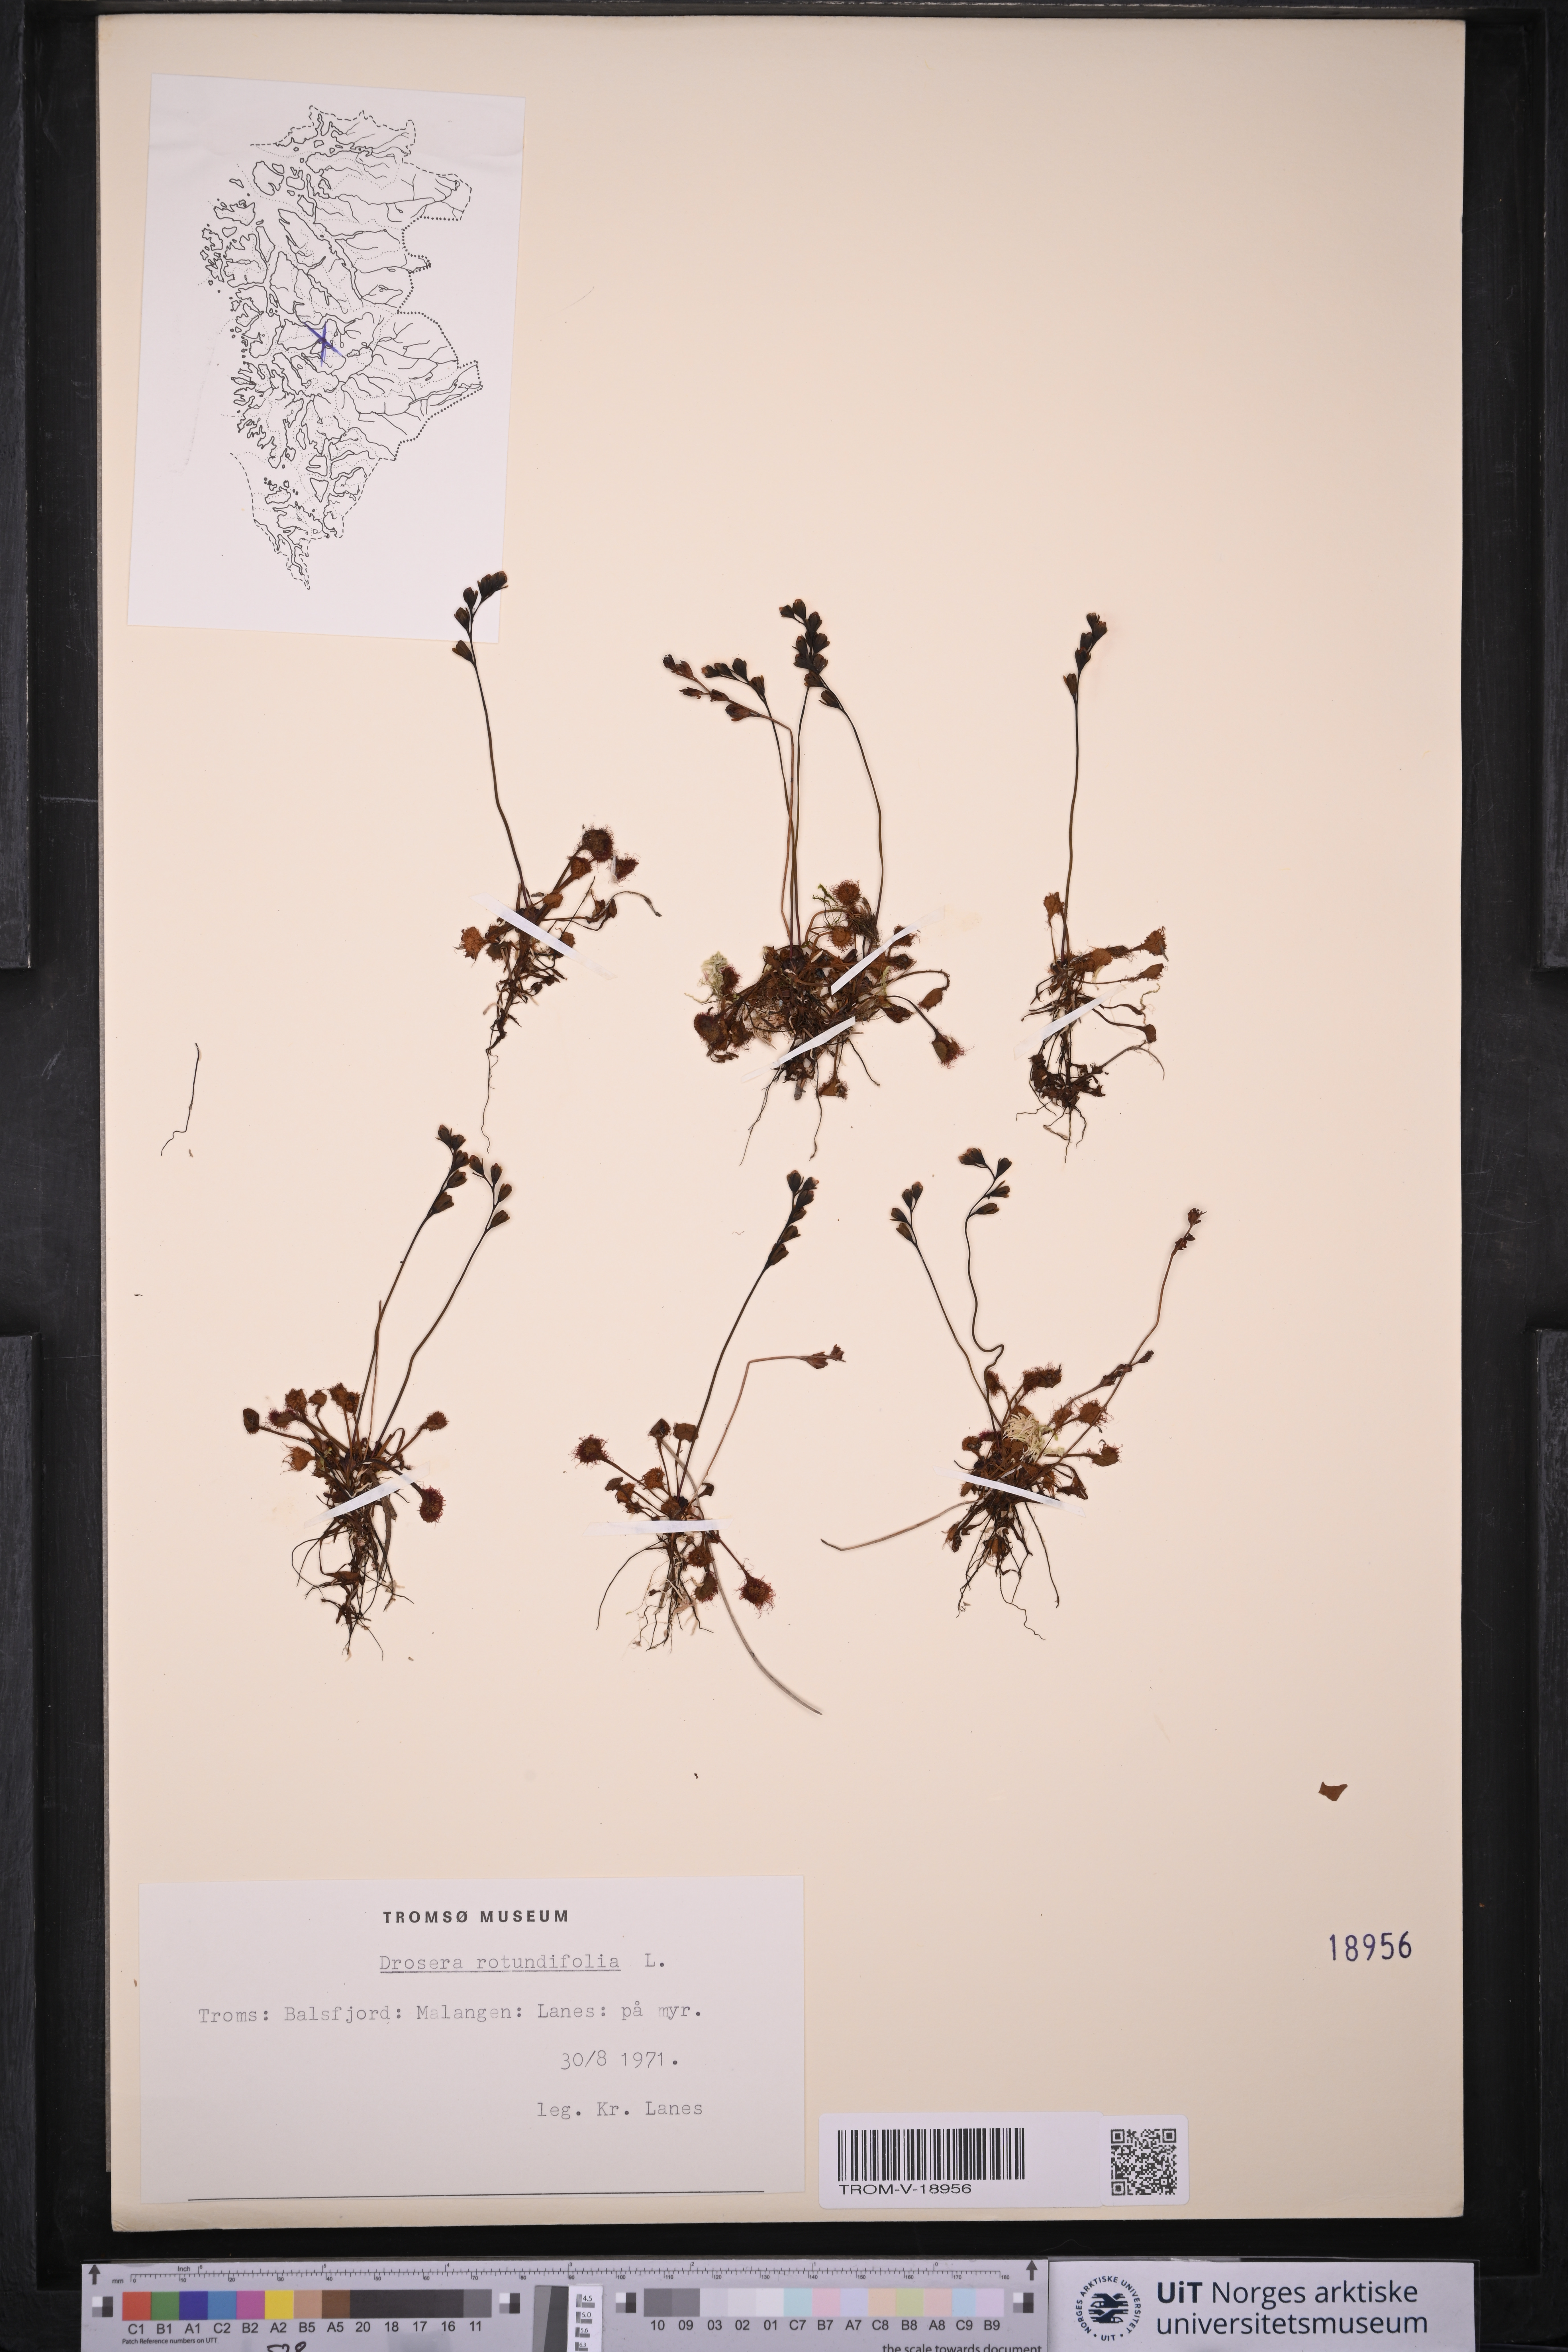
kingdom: Plantae
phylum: Tracheophyta
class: Magnoliopsida
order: Caryophyllales
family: Droseraceae
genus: Drosera
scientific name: Drosera rotundifolia
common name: Round-leaved sundew
